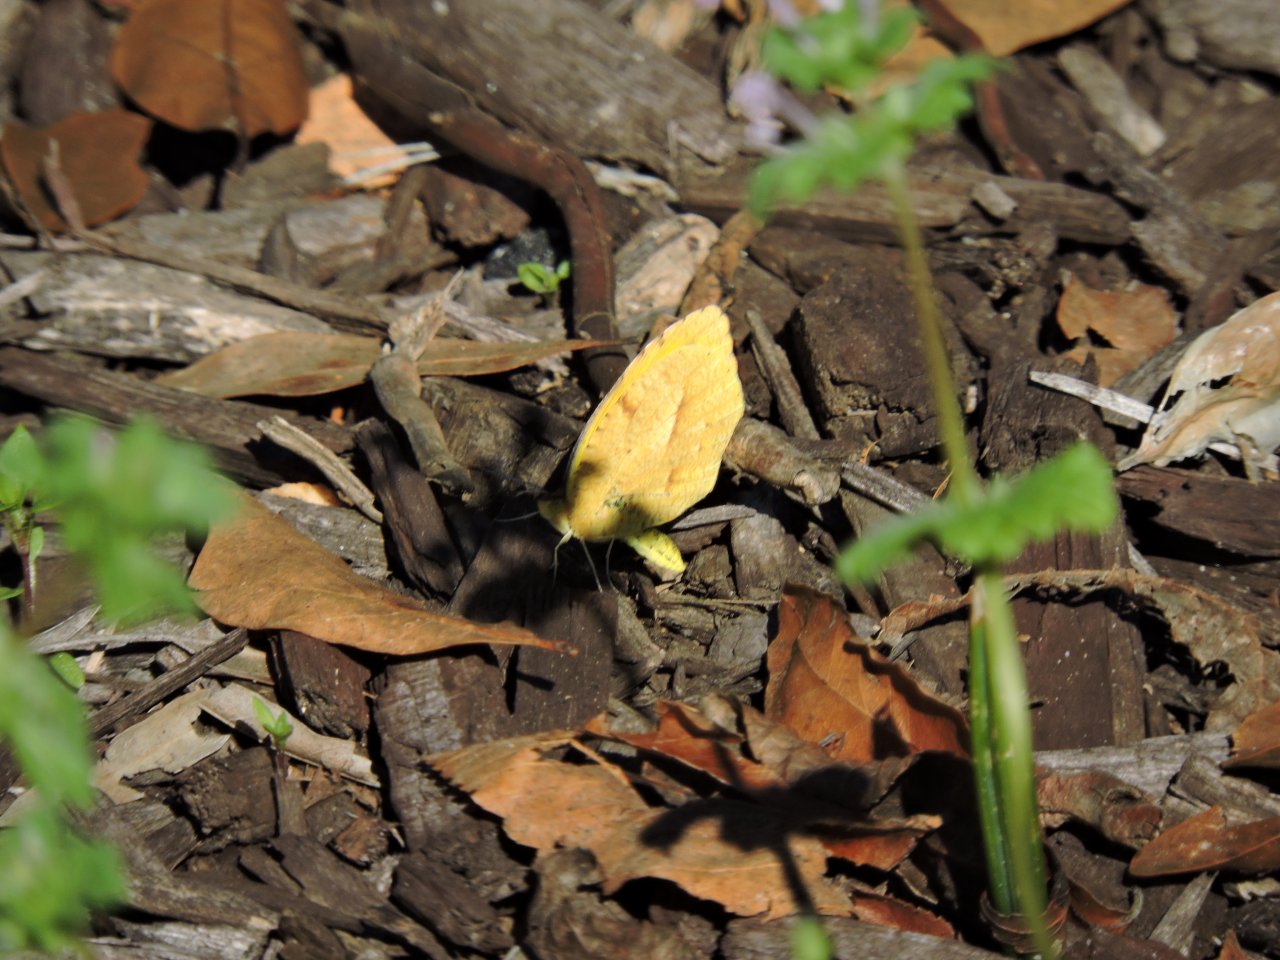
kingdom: Animalia
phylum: Arthropoda
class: Insecta
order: Lepidoptera
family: Pieridae
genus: Abaeis
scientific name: Abaeis nicippe
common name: Sleepy Orange
